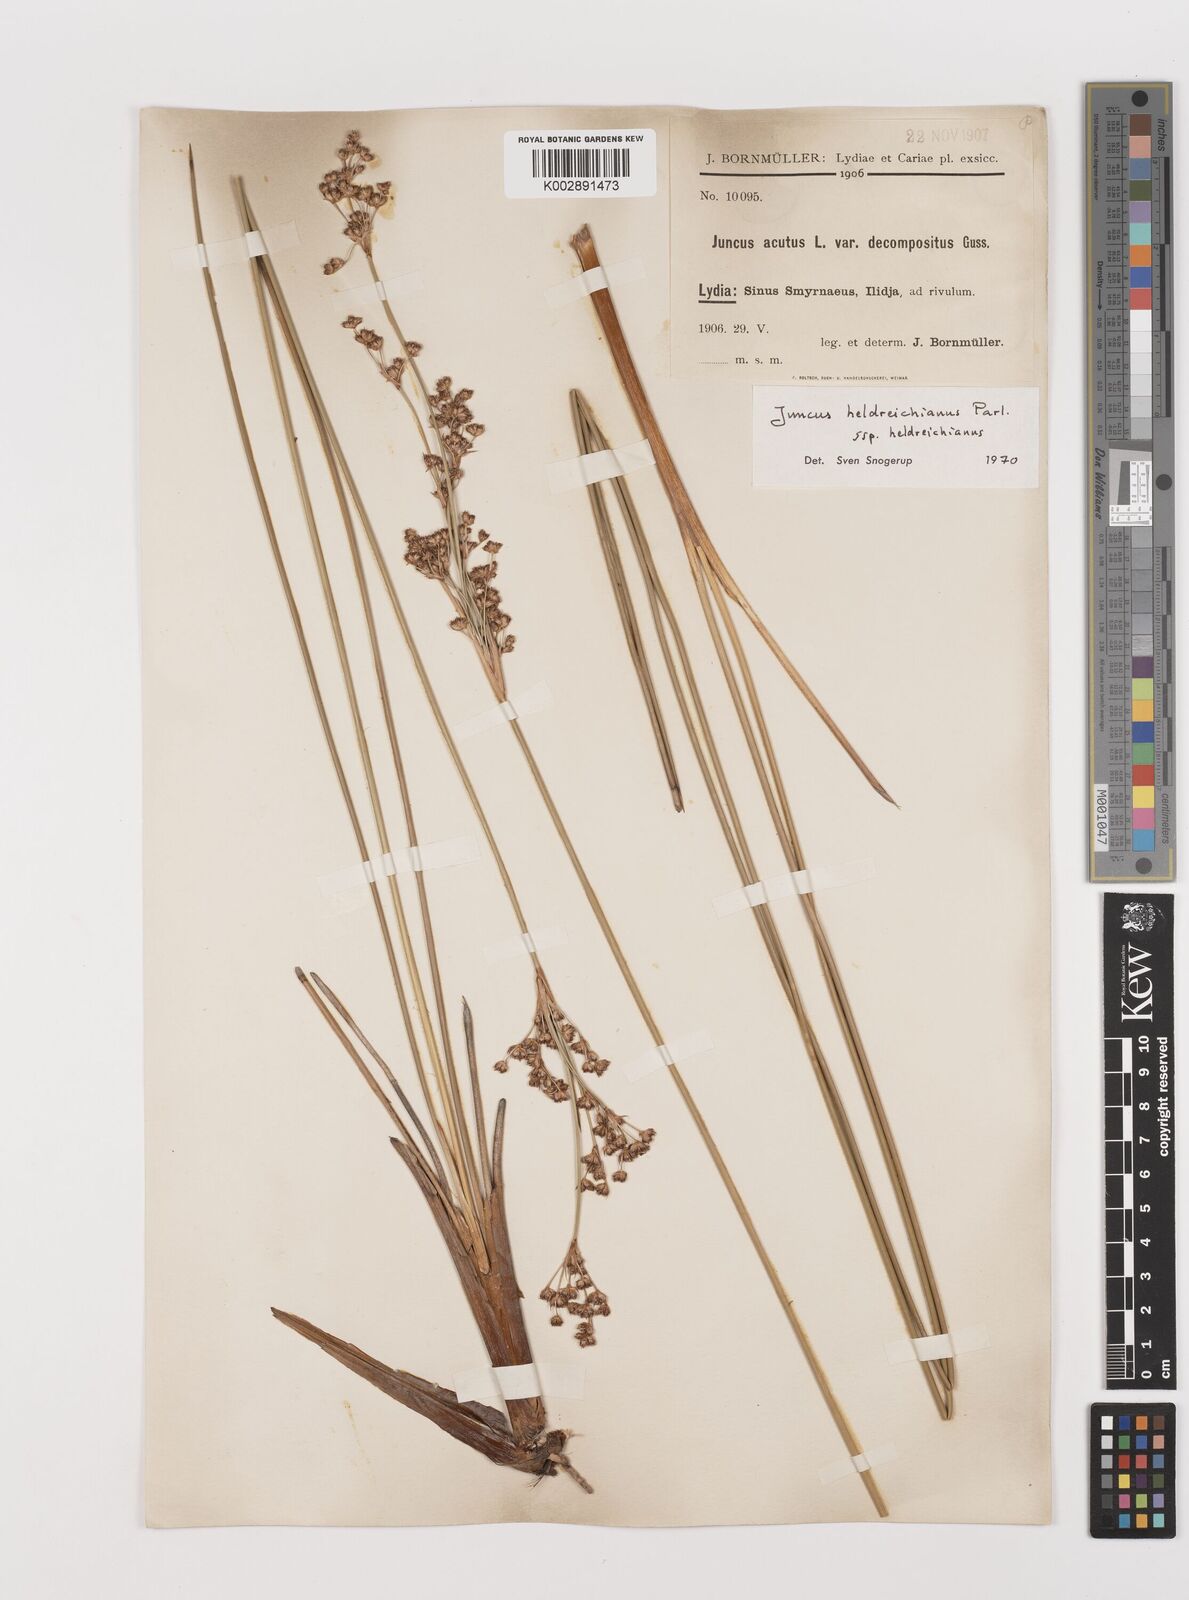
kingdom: Plantae
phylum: Tracheophyta
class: Liliopsida
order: Poales
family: Juncaceae
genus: Juncus
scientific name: Juncus heldreichianus
